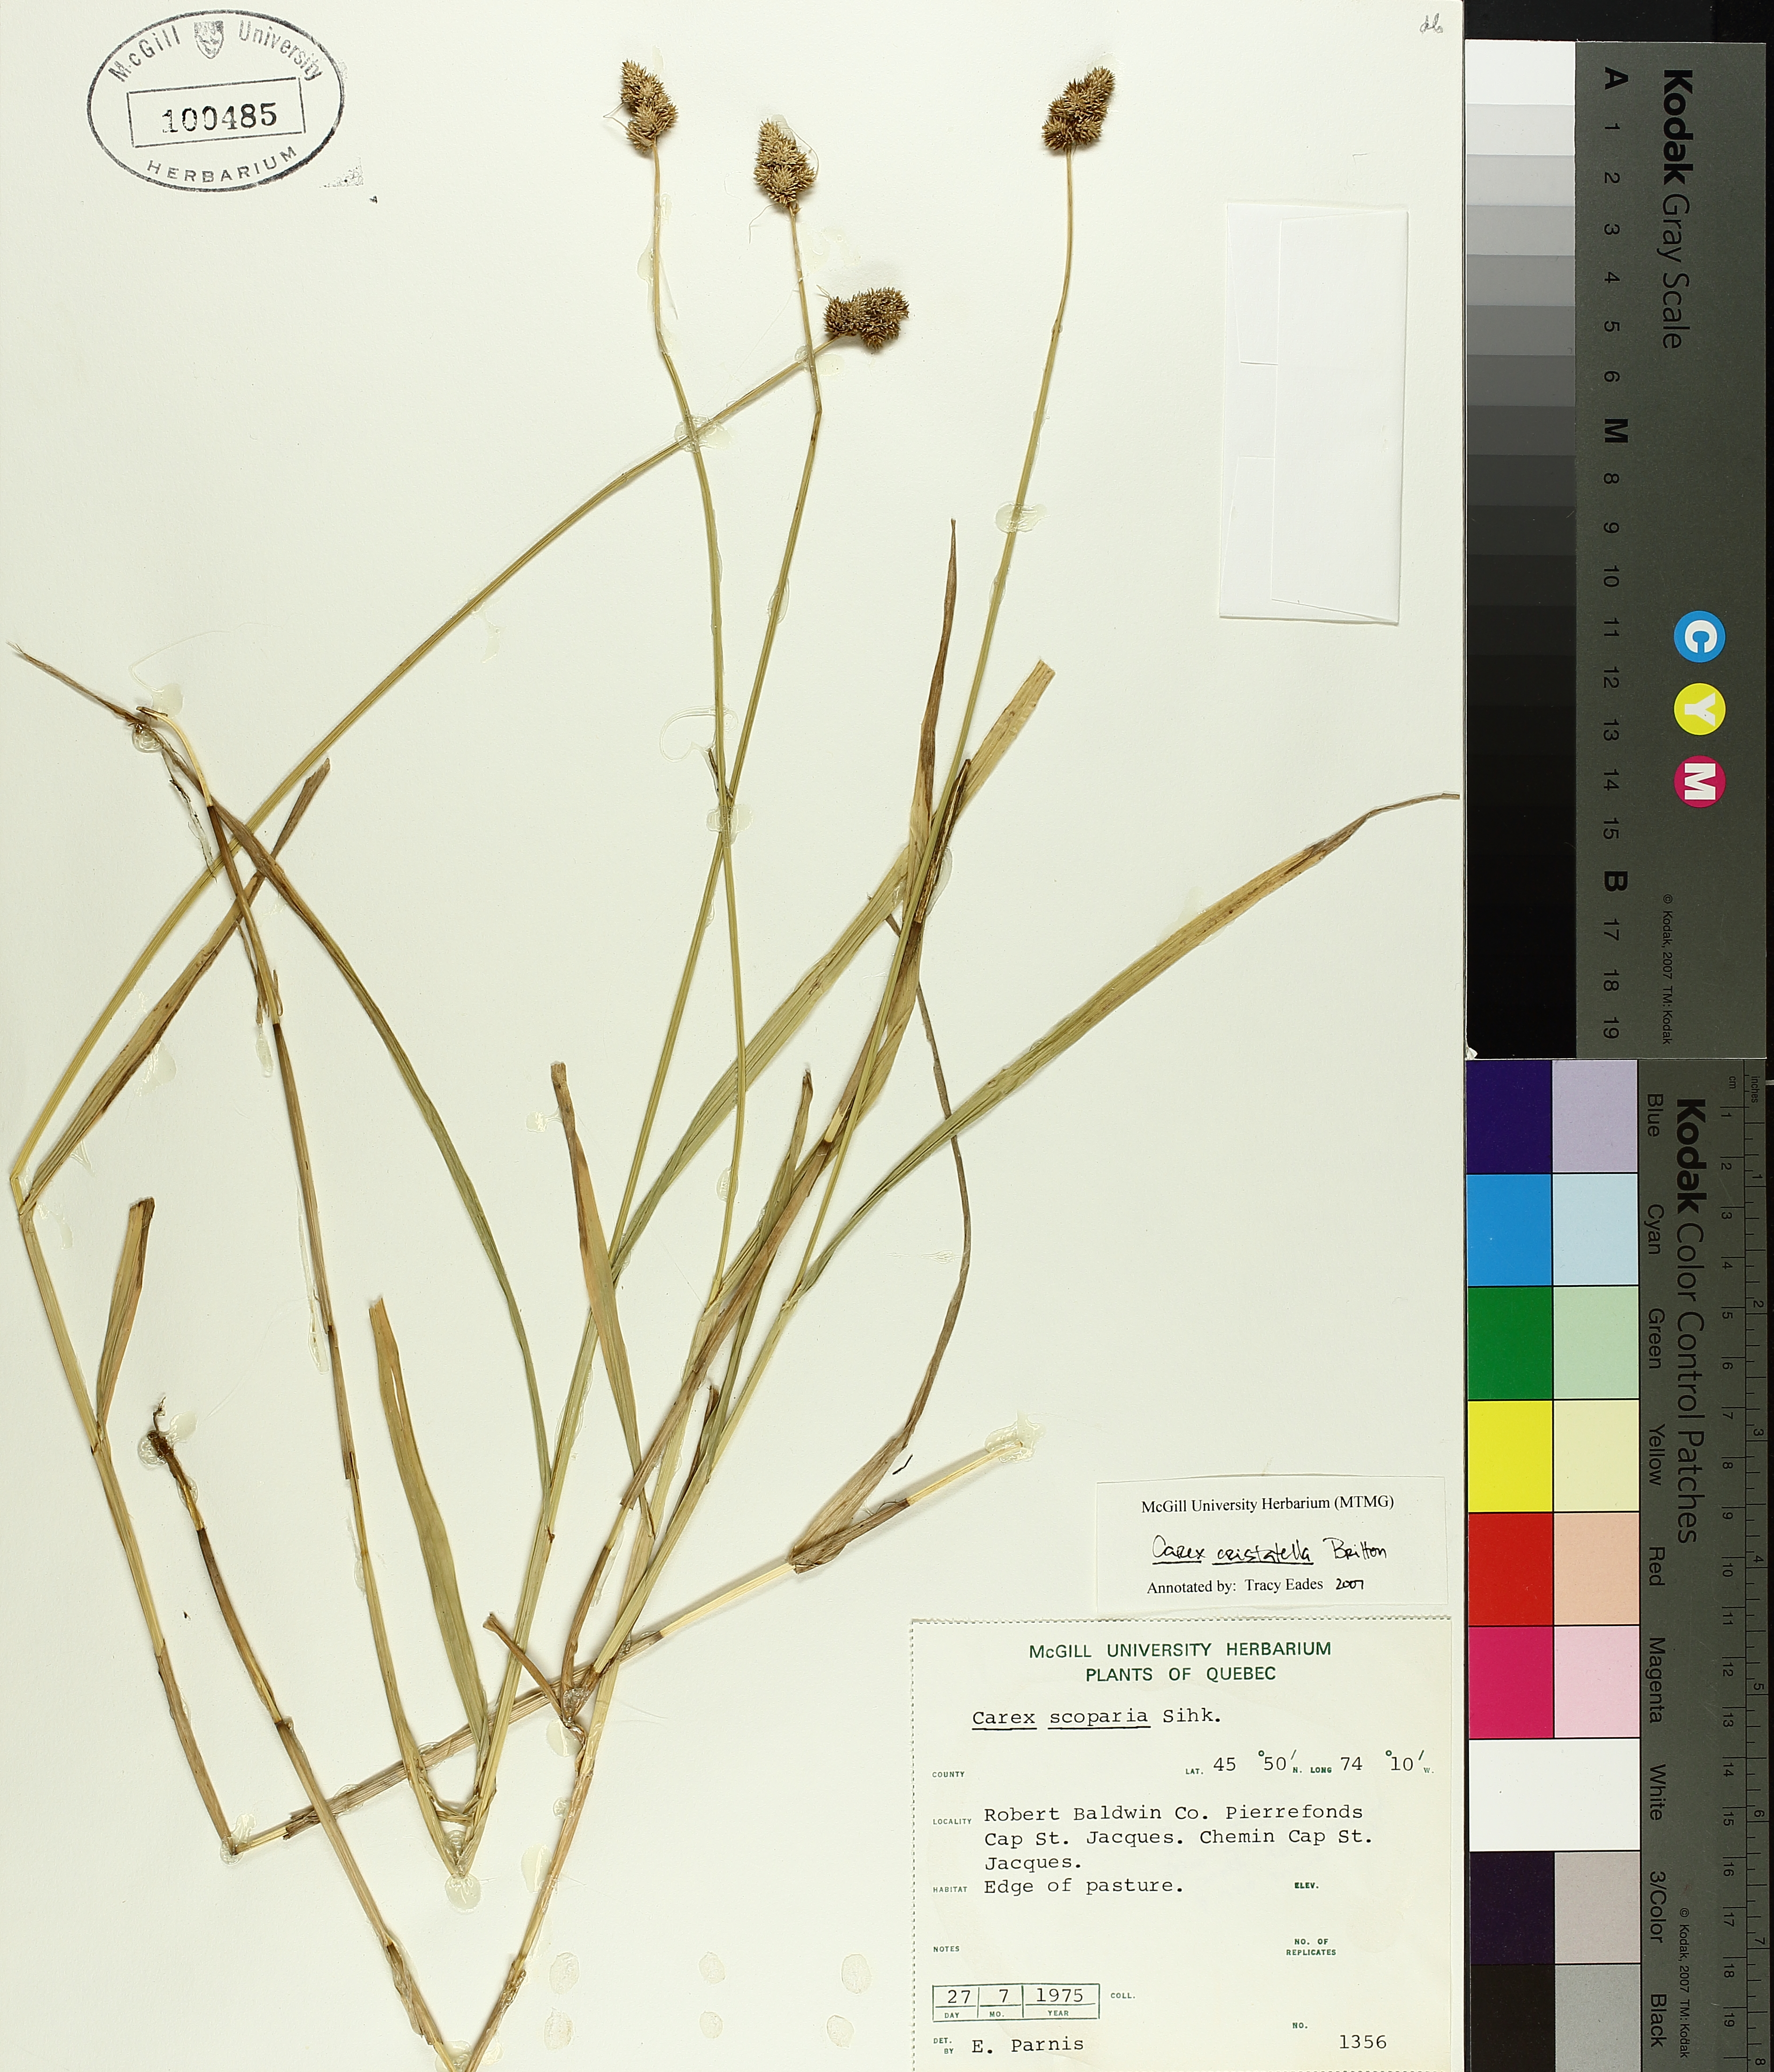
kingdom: Plantae
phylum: Tracheophyta
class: Liliopsida
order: Poales
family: Cyperaceae
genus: Carex
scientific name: Carex cristatella
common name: Crested oval sedge
